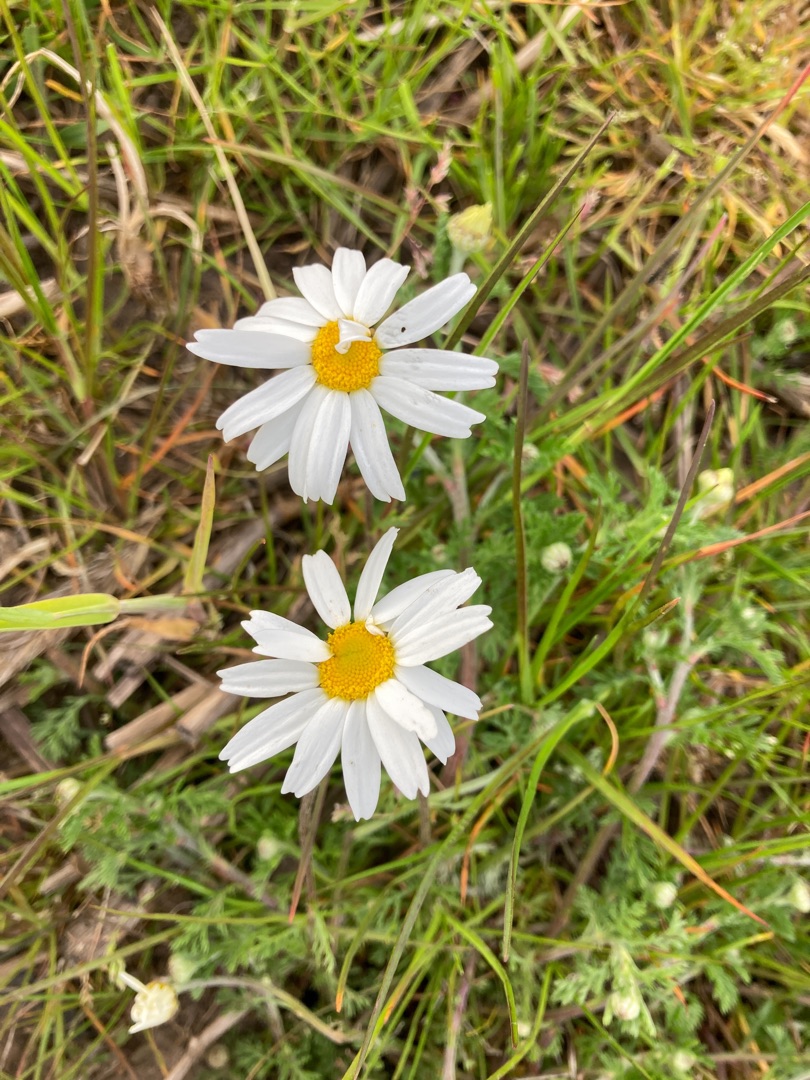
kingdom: Plantae
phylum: Tracheophyta
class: Magnoliopsida
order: Asterales
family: Asteraceae
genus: Anthemis
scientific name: Anthemis
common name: Gåseurt (Anthemis-slægten)
